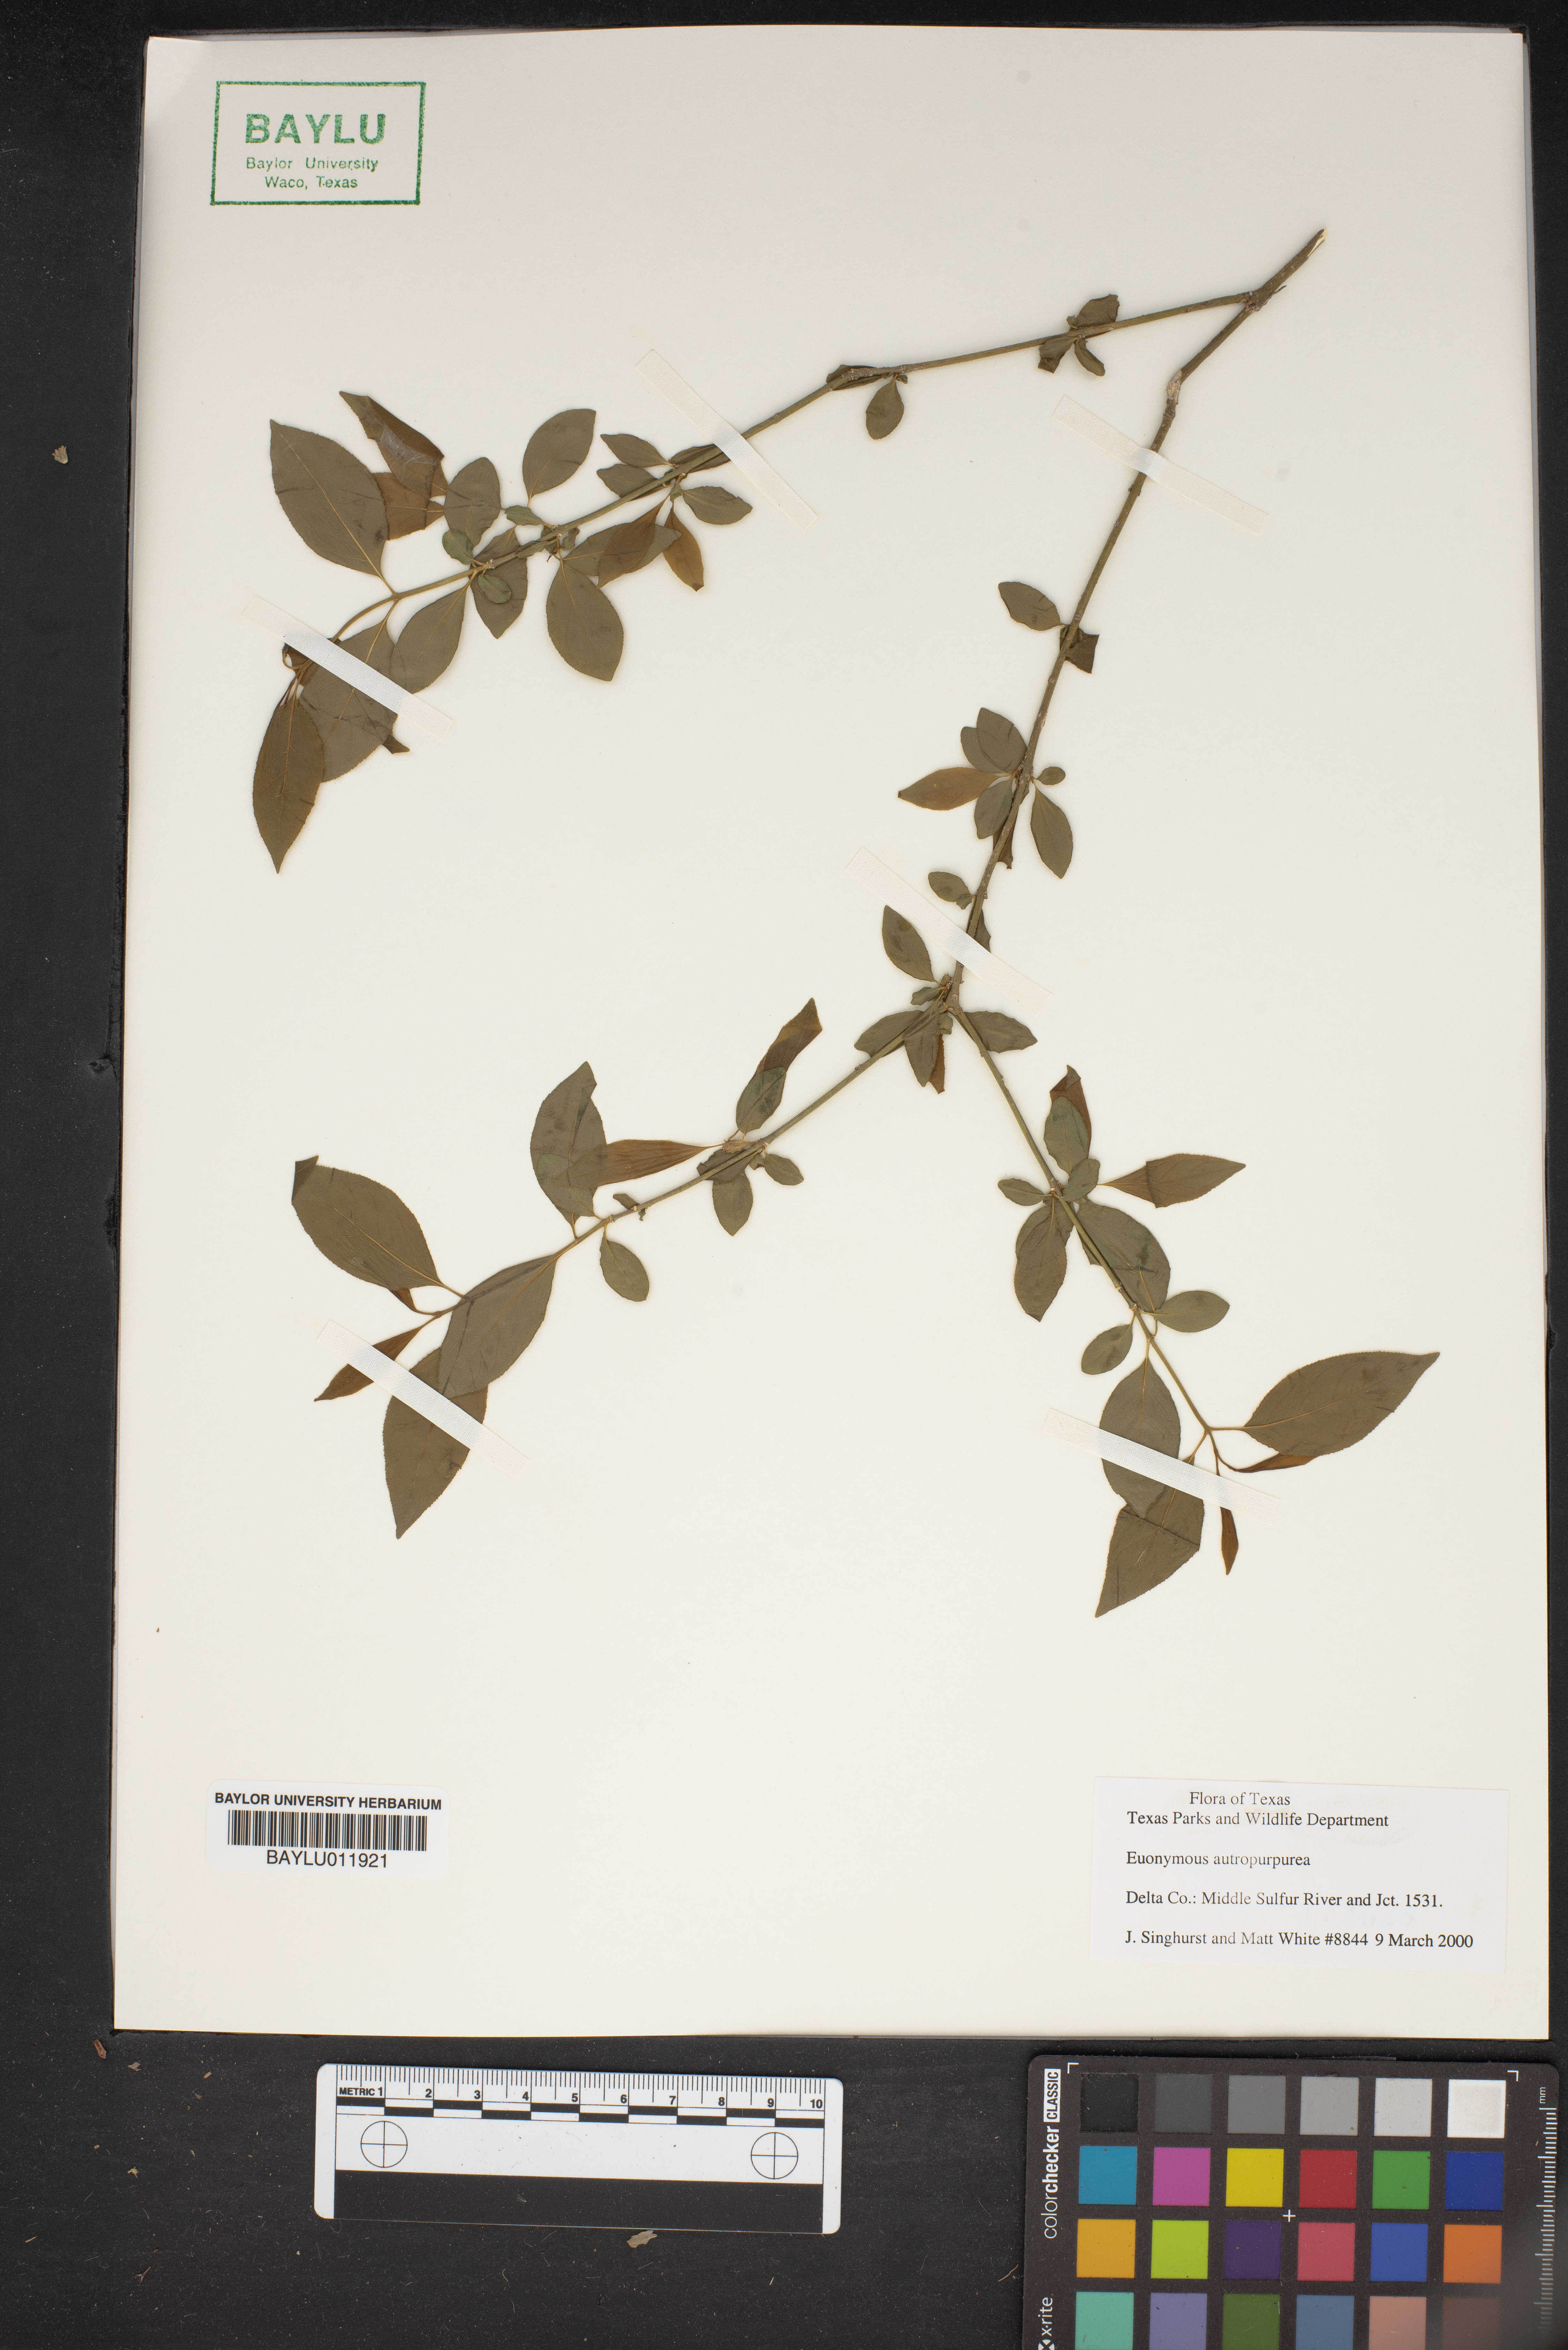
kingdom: Plantae
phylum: Tracheophyta
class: Magnoliopsida
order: Celastrales
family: Celastraceae
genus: Euonymus
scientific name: Euonymus atropurpureus
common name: Eastern wahoo
